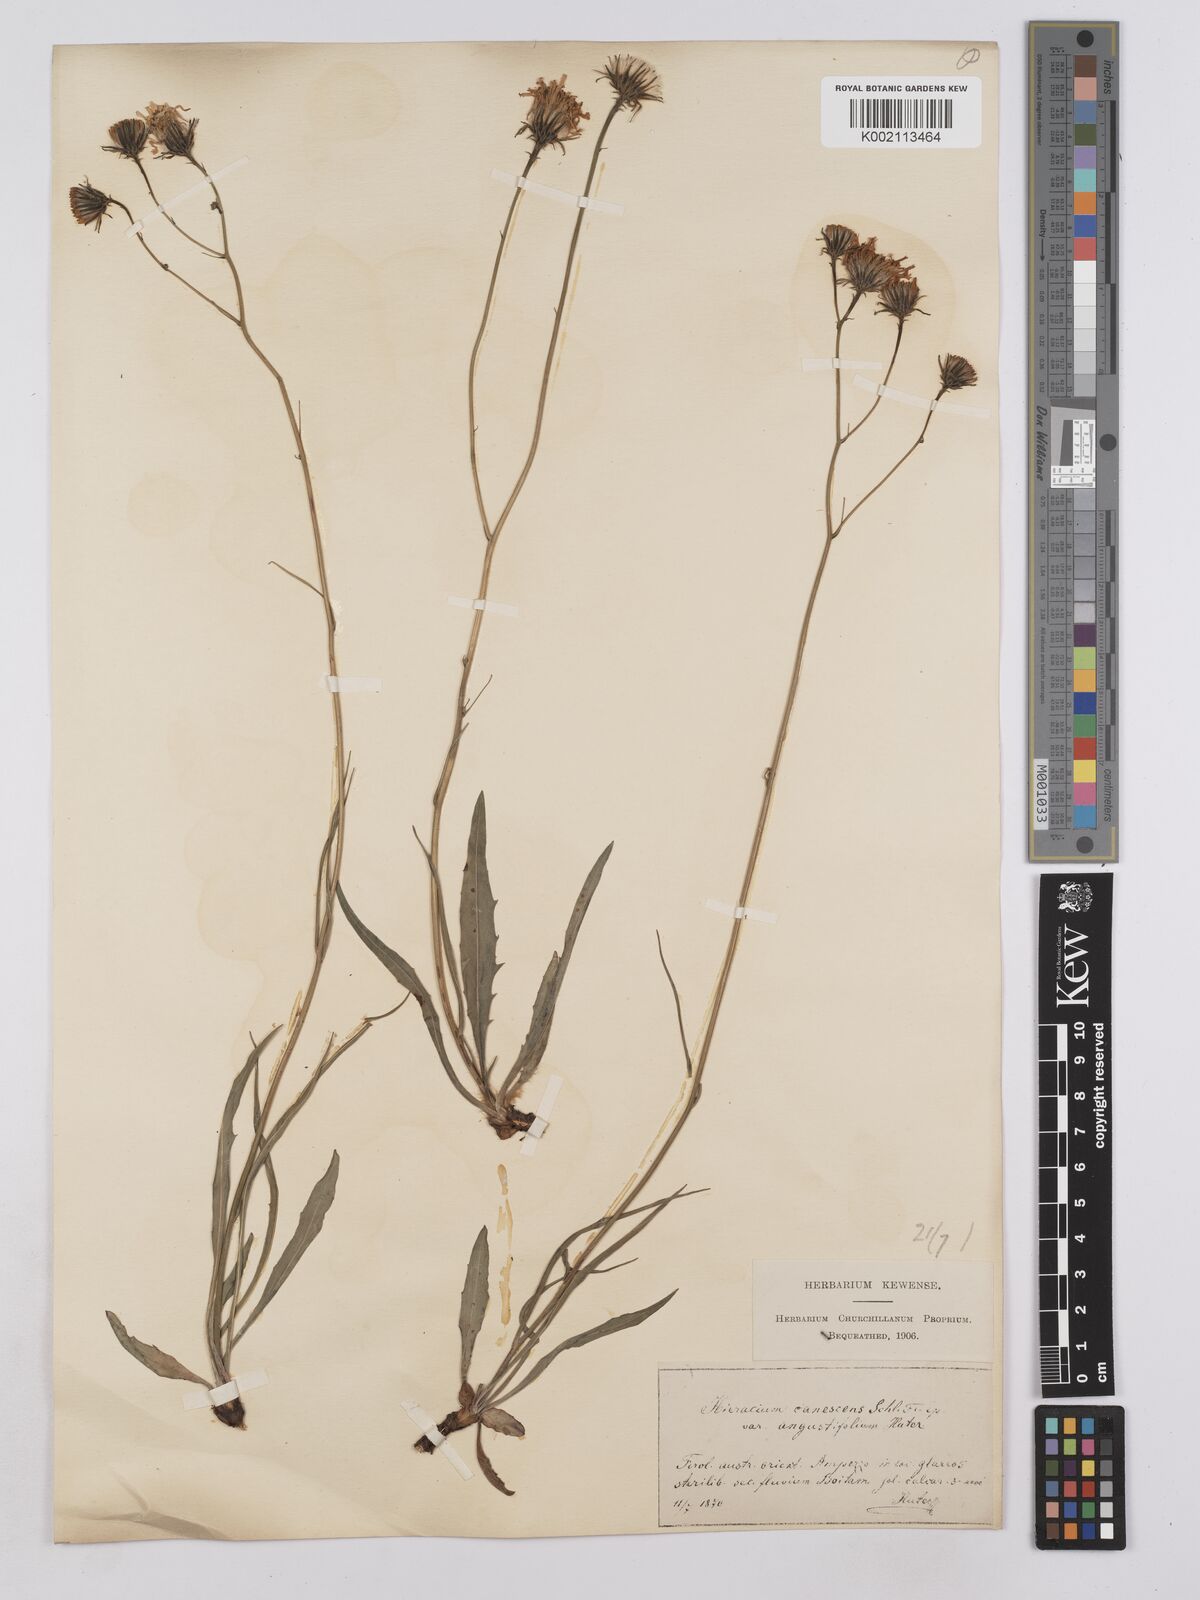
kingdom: Plantae
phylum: Tracheophyta
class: Magnoliopsida
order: Asterales
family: Asteraceae
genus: Hieracium
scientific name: Hieracium calcareum
